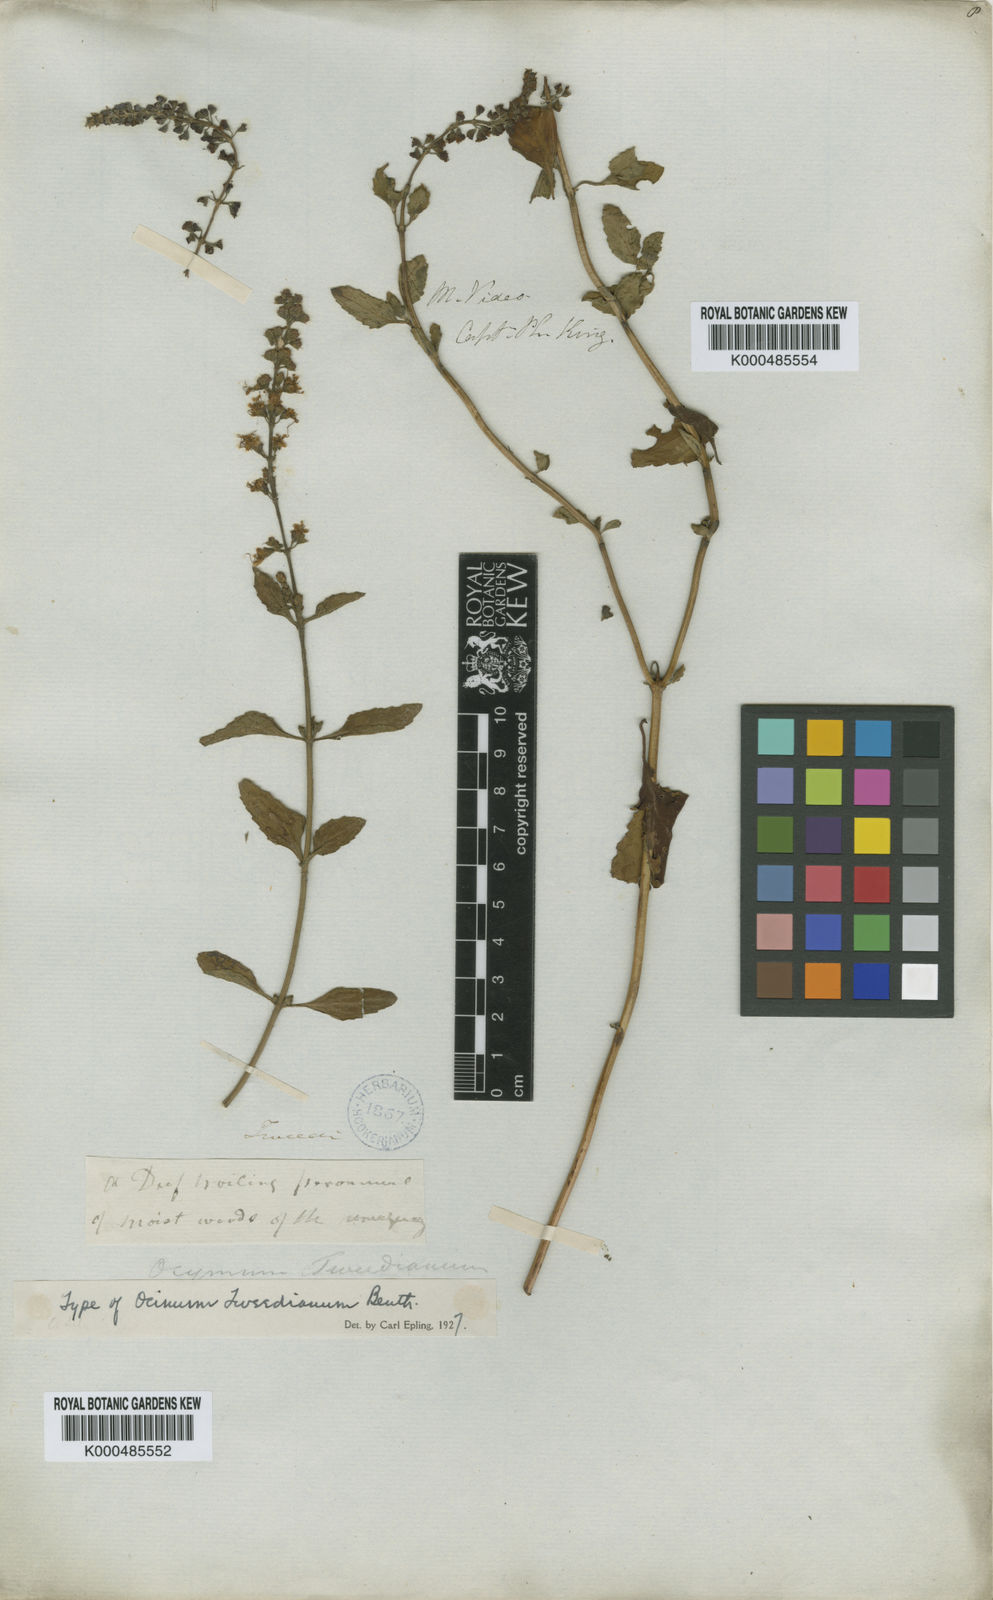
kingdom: Plantae
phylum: Tracheophyta
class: Magnoliopsida
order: Lamiales
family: Lamiaceae
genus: Ocimum
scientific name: Ocimum carnosum
